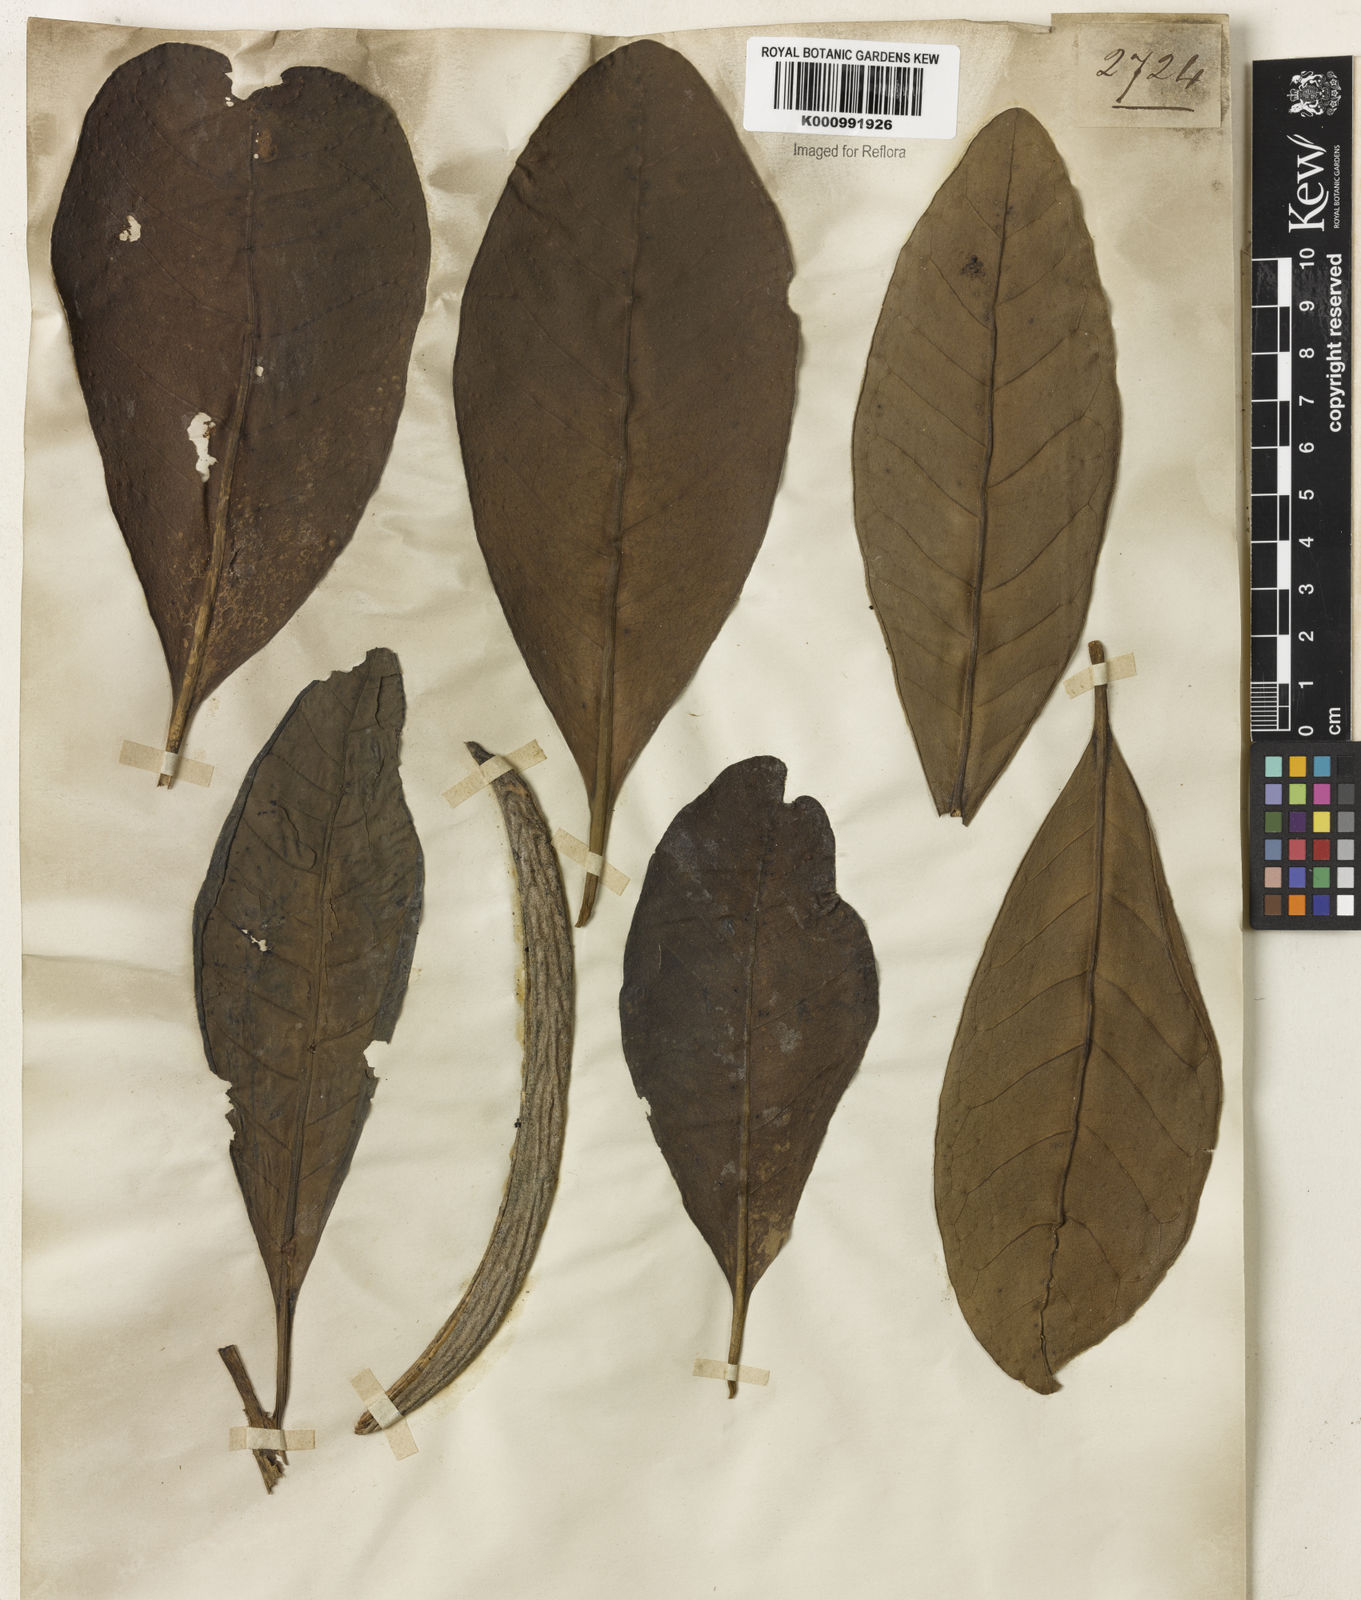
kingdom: Plantae
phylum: Tracheophyta
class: Magnoliopsida
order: Lamiales
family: Bignoniaceae
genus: Tabebuia
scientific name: Tabebuia cassinoides
